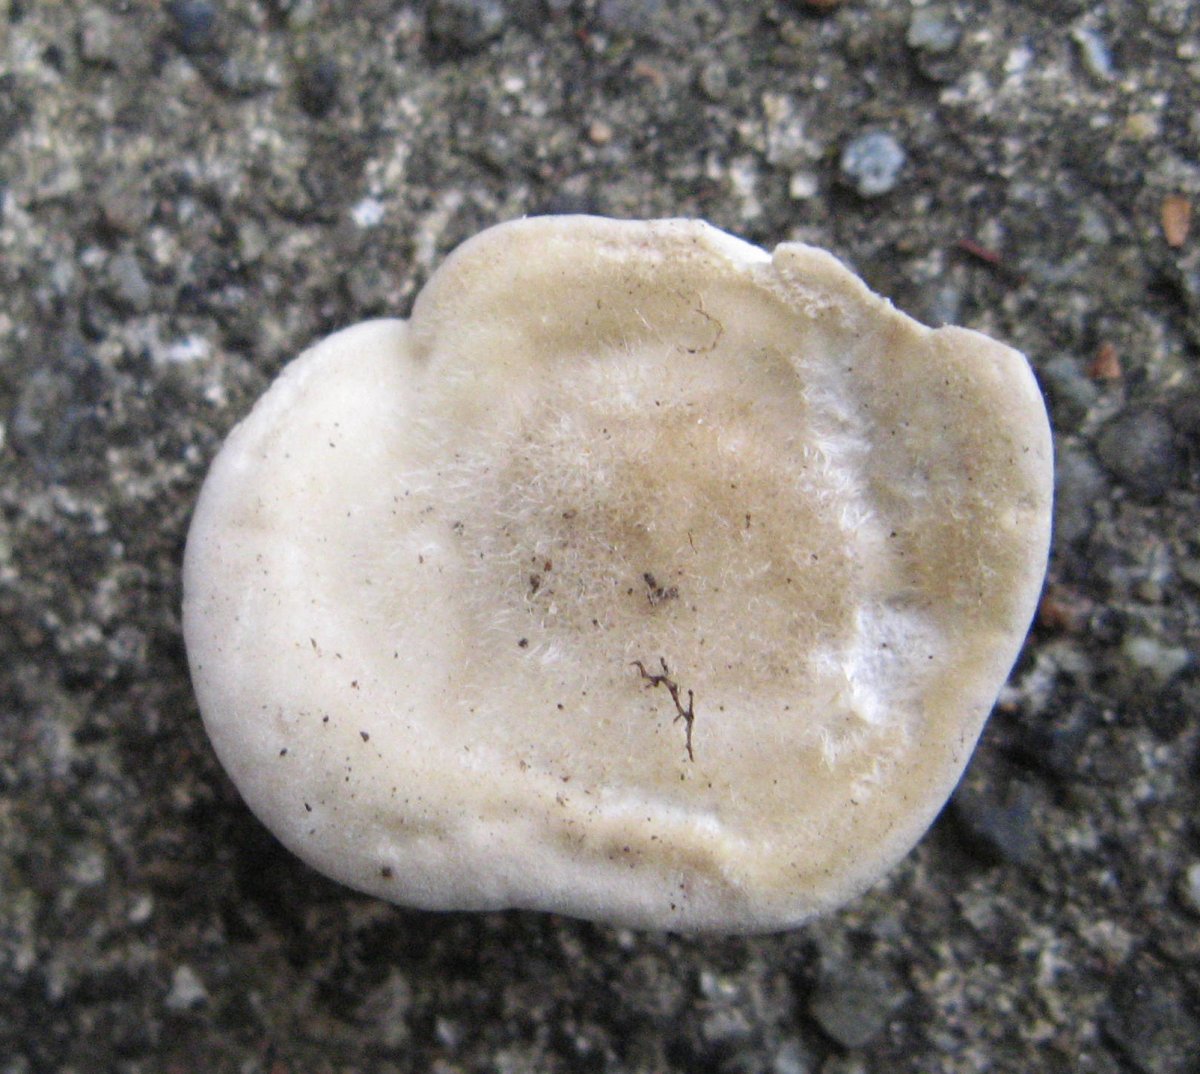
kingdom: Fungi
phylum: Basidiomycota
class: Agaricomycetes
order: Polyporales
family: Polyporaceae
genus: Trametes
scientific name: Trametes hirsuta
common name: håret læderporesvamp
